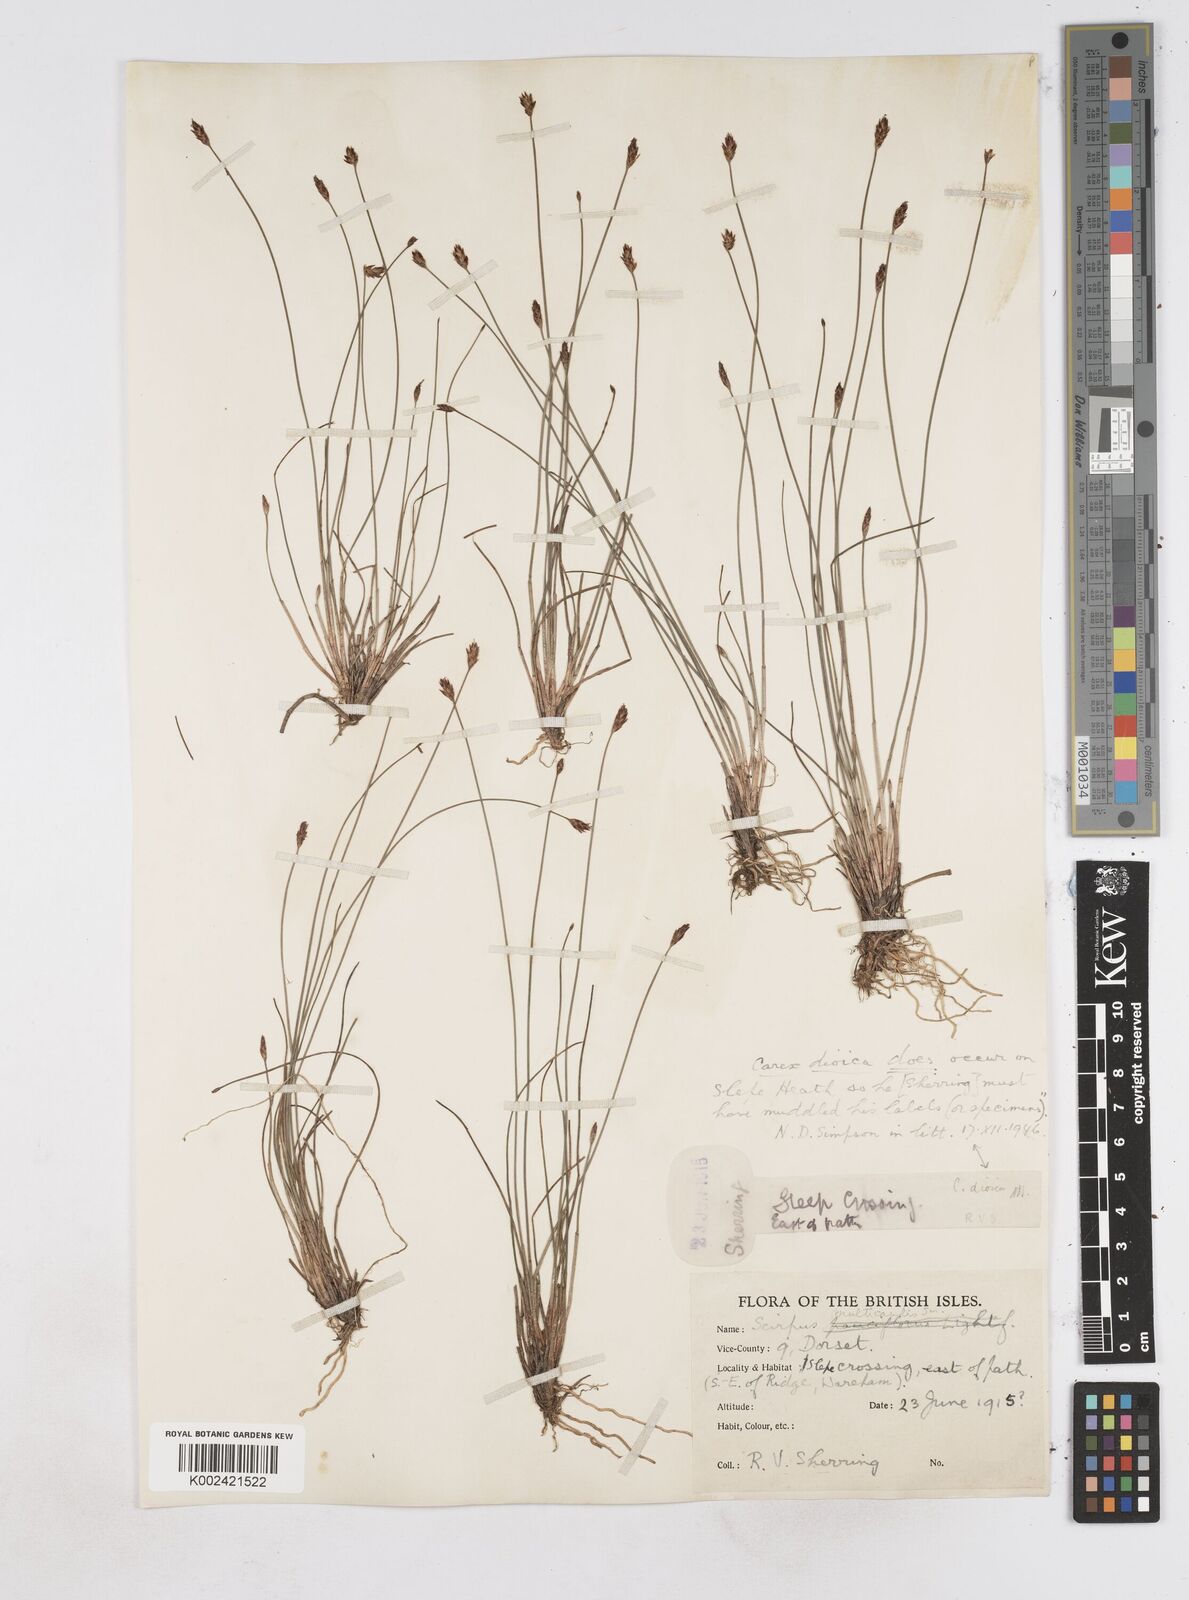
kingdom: Plantae
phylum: Tracheophyta
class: Liliopsida
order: Poales
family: Cyperaceae
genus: Eleocharis
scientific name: Eleocharis multicaulis
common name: Many-stalked spike-rush
